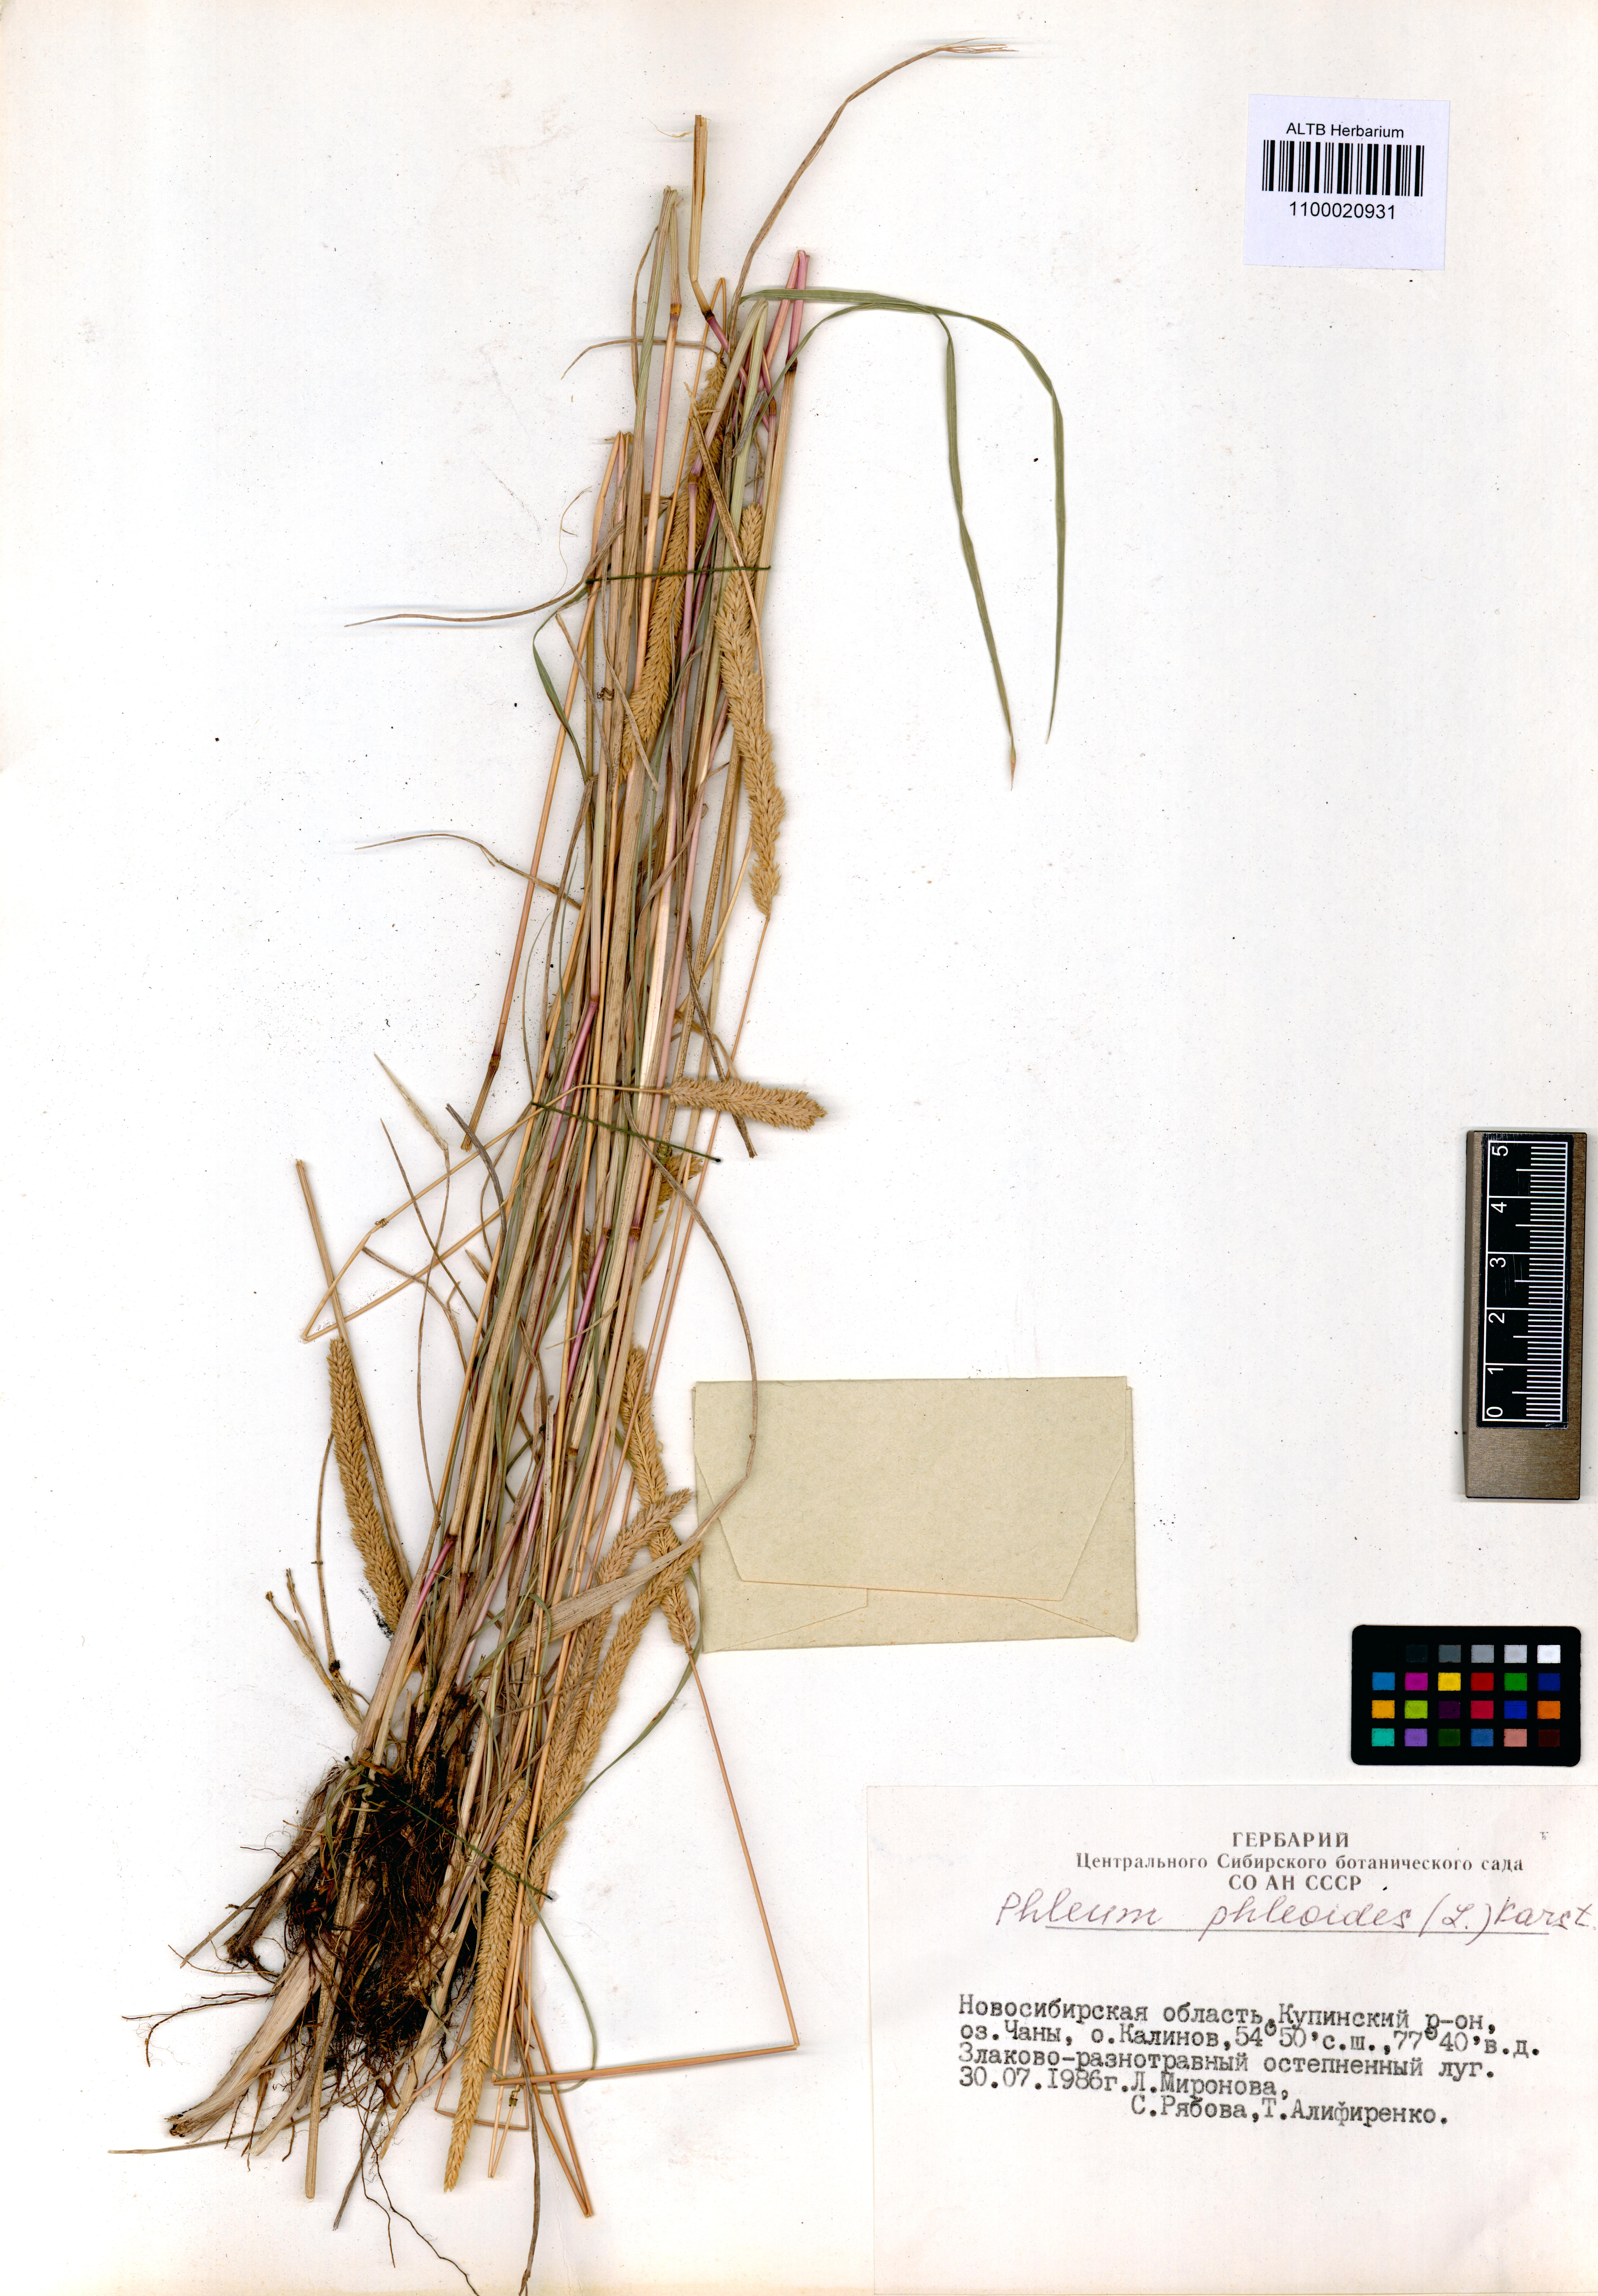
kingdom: Plantae
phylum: Tracheophyta
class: Liliopsida
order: Poales
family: Poaceae
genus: Phleum
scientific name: Phleum phleoides
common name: Purple-stem cat's-tail
